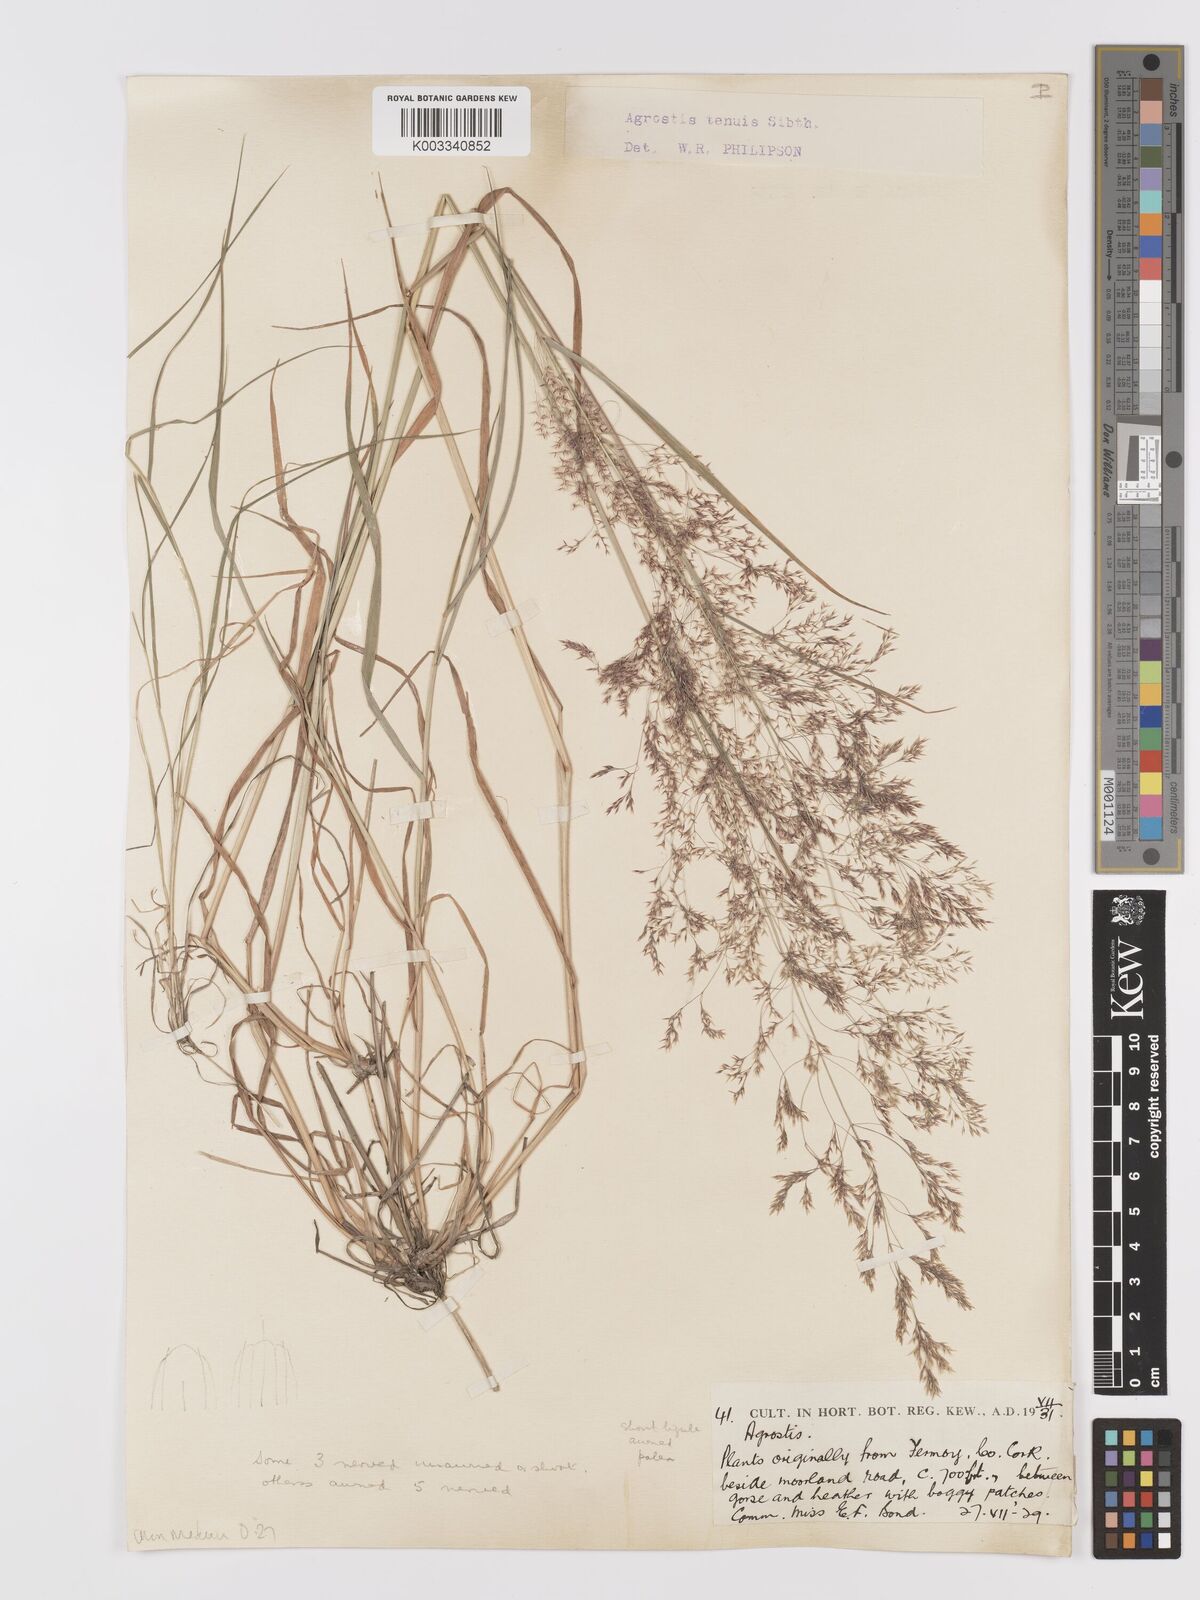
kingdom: Plantae
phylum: Tracheophyta
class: Liliopsida
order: Poales
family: Poaceae
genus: Agrostis
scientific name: Agrostis capillaris
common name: Colonial bentgrass
